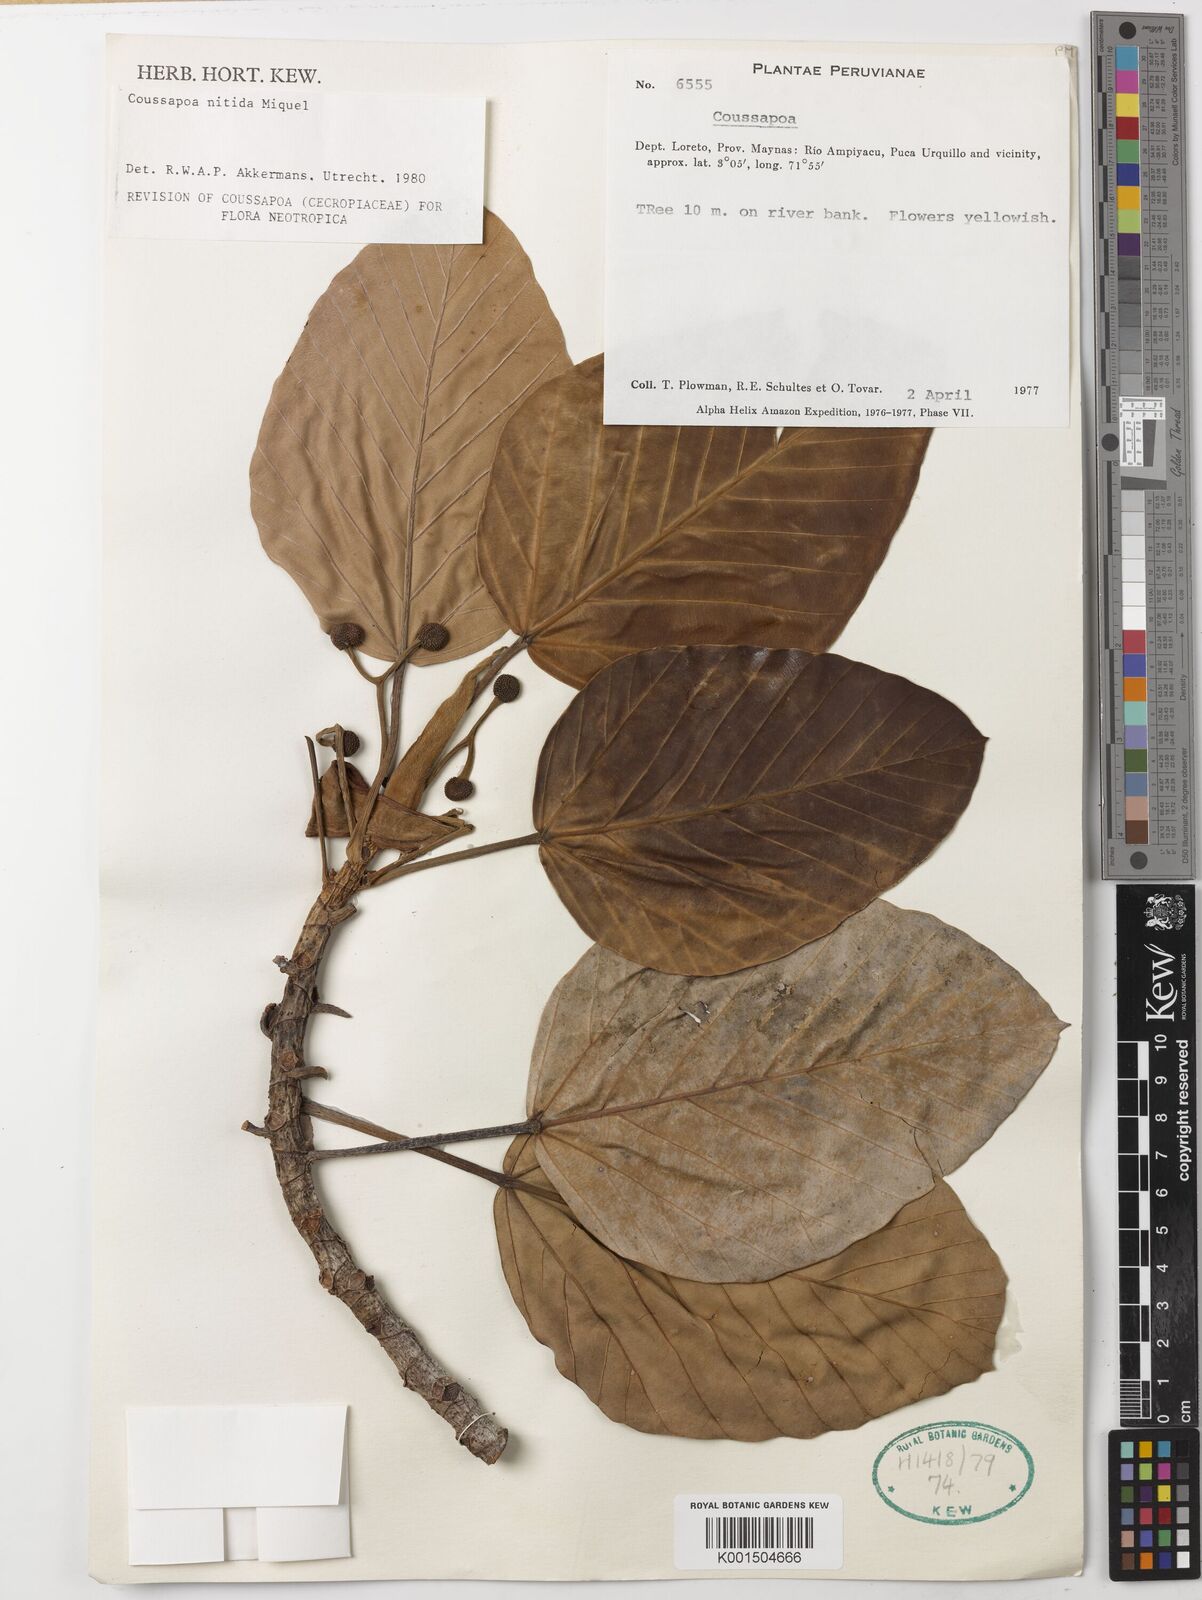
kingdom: Plantae
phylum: Tracheophyta
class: Magnoliopsida
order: Rosales
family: Urticaceae
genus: Coussapoa
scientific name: Coussapoa nitida
